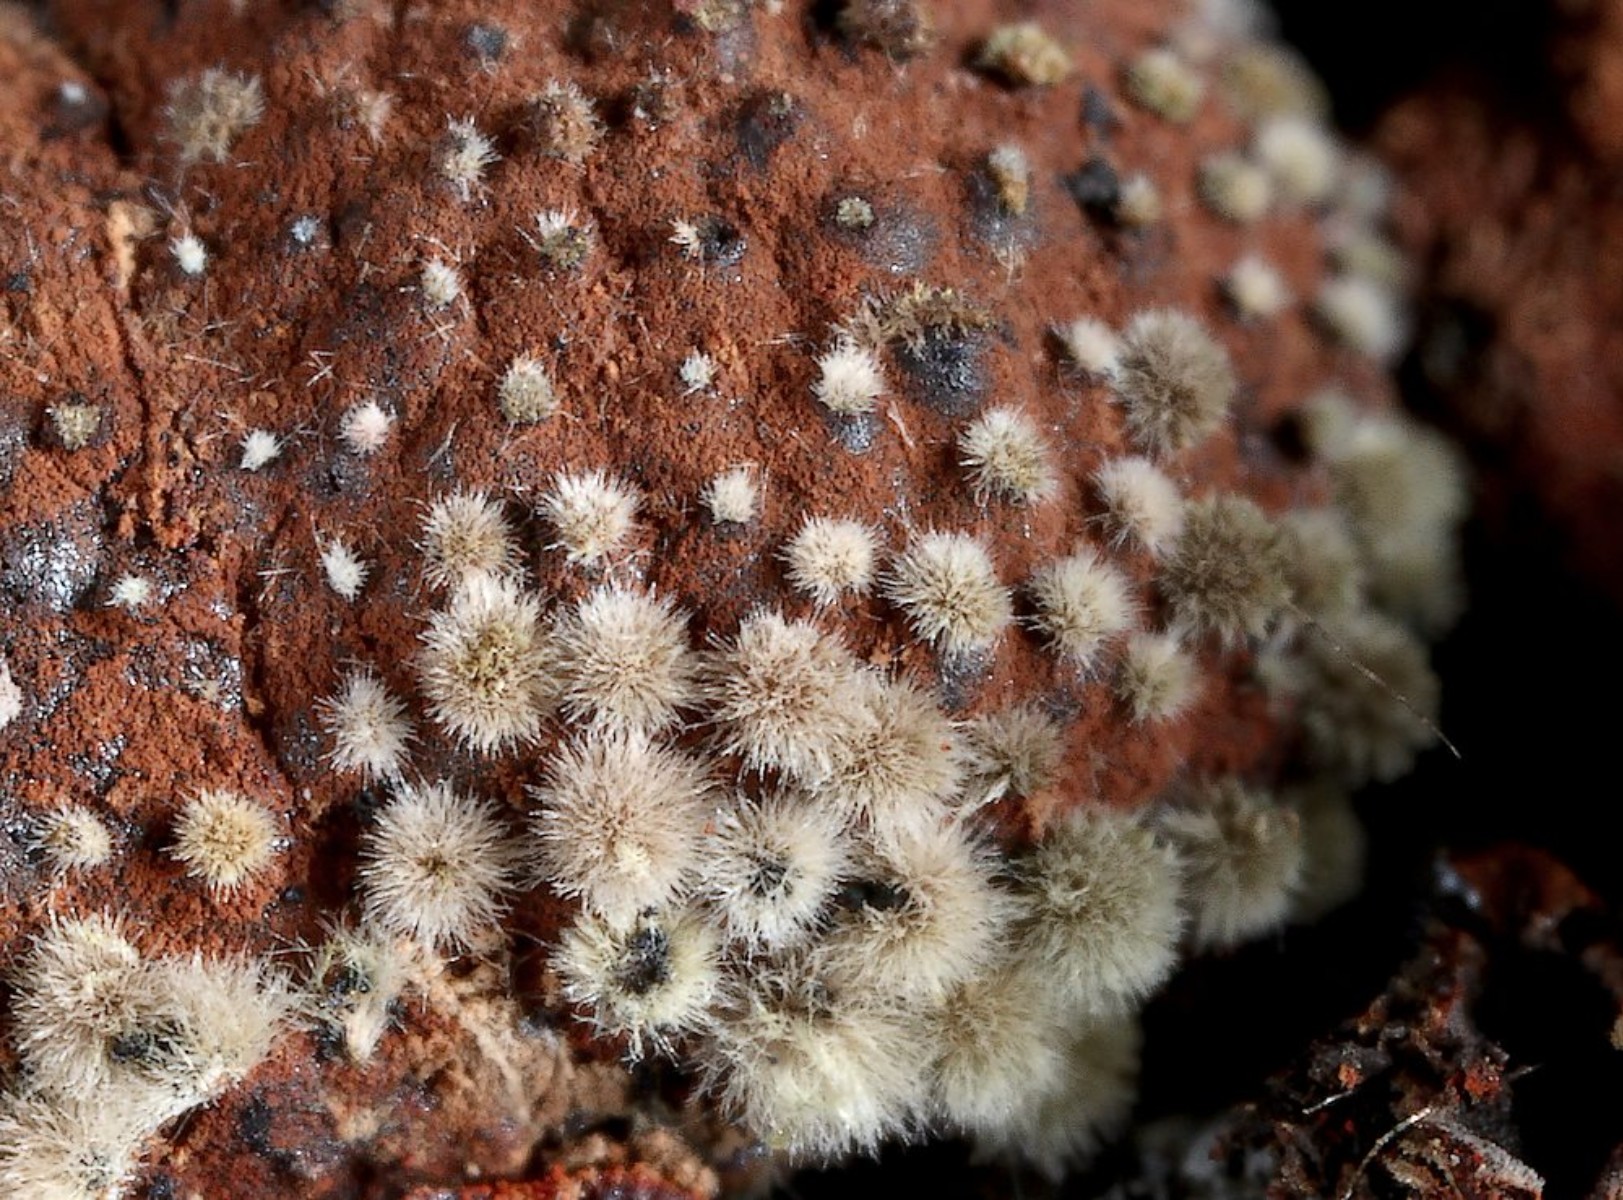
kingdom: Fungi
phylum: Ascomycota
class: Sordariomycetes
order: Xylariales
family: Hypoxylaceae
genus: Hypoxylon
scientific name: Hypoxylon fragiforme
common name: kuljordbær
